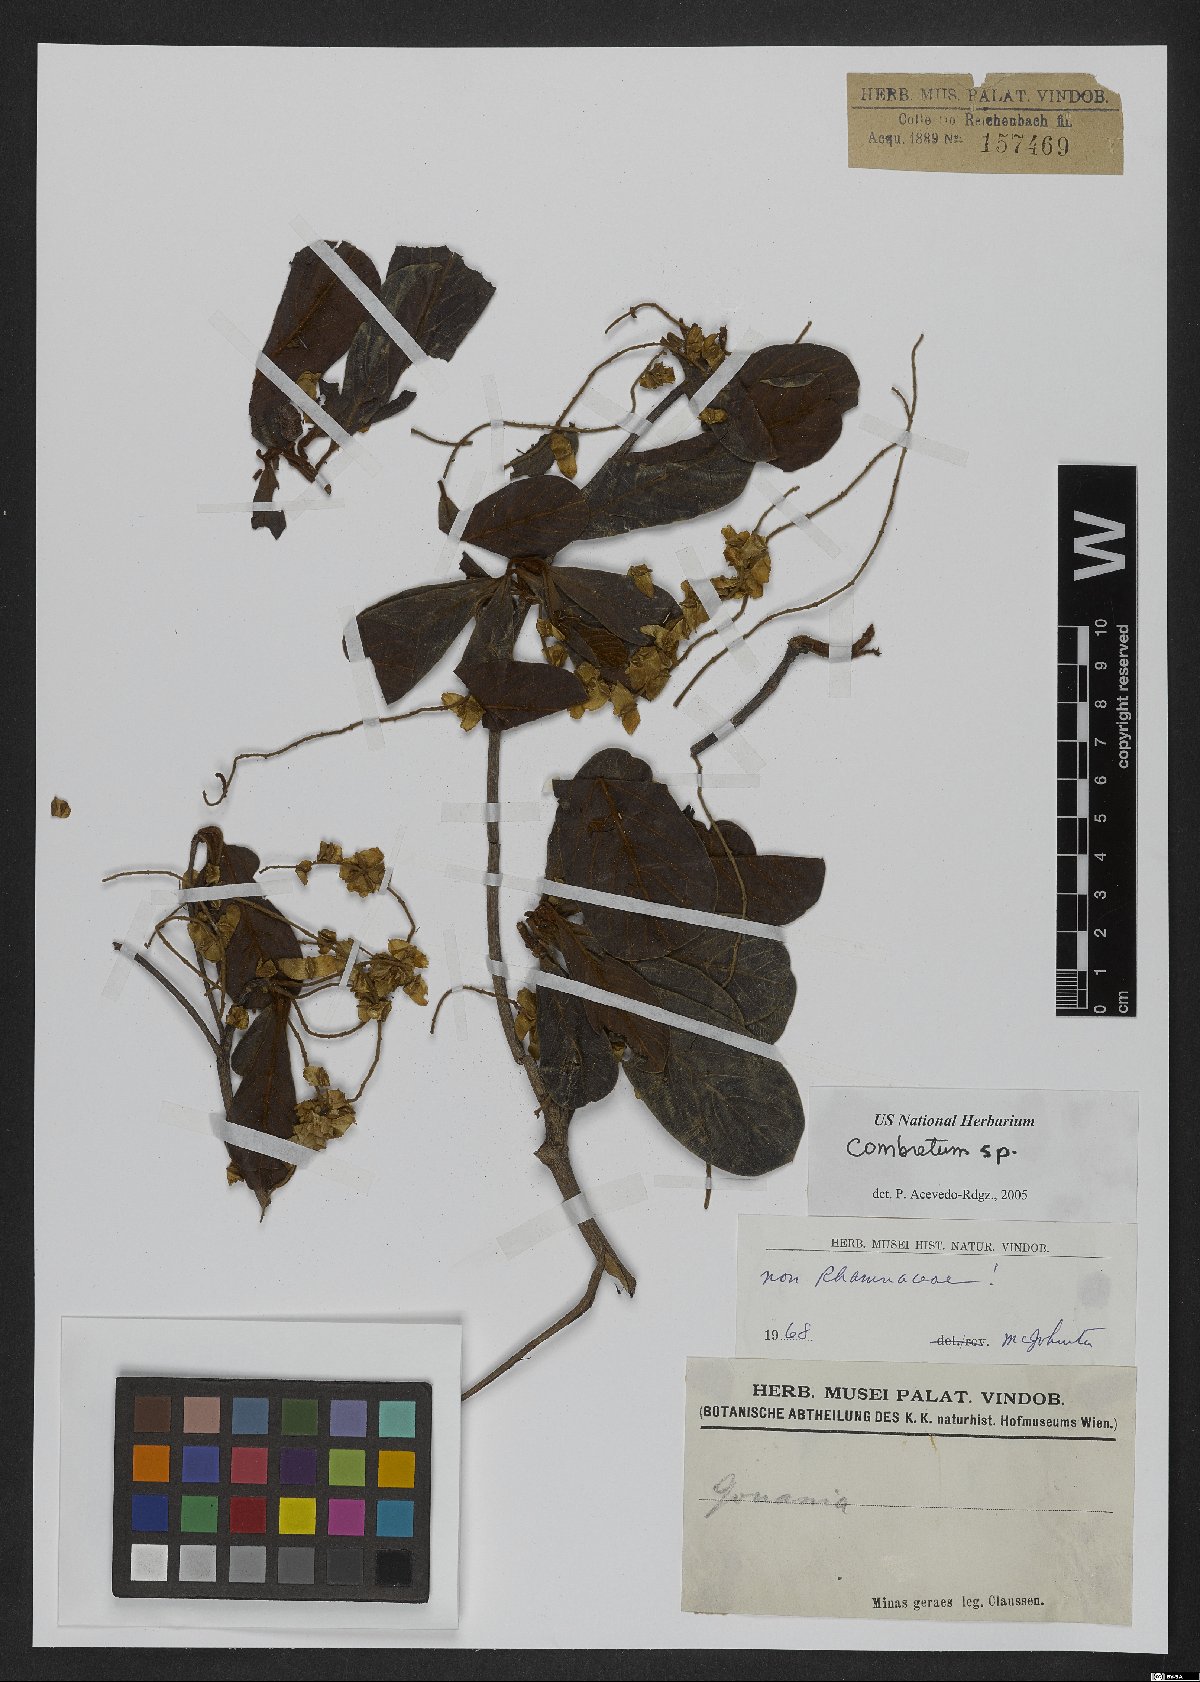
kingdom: Plantae
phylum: Tracheophyta
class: Magnoliopsida
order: Myrtales
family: Combretaceae
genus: Combretum
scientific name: Combretum vernicosum
